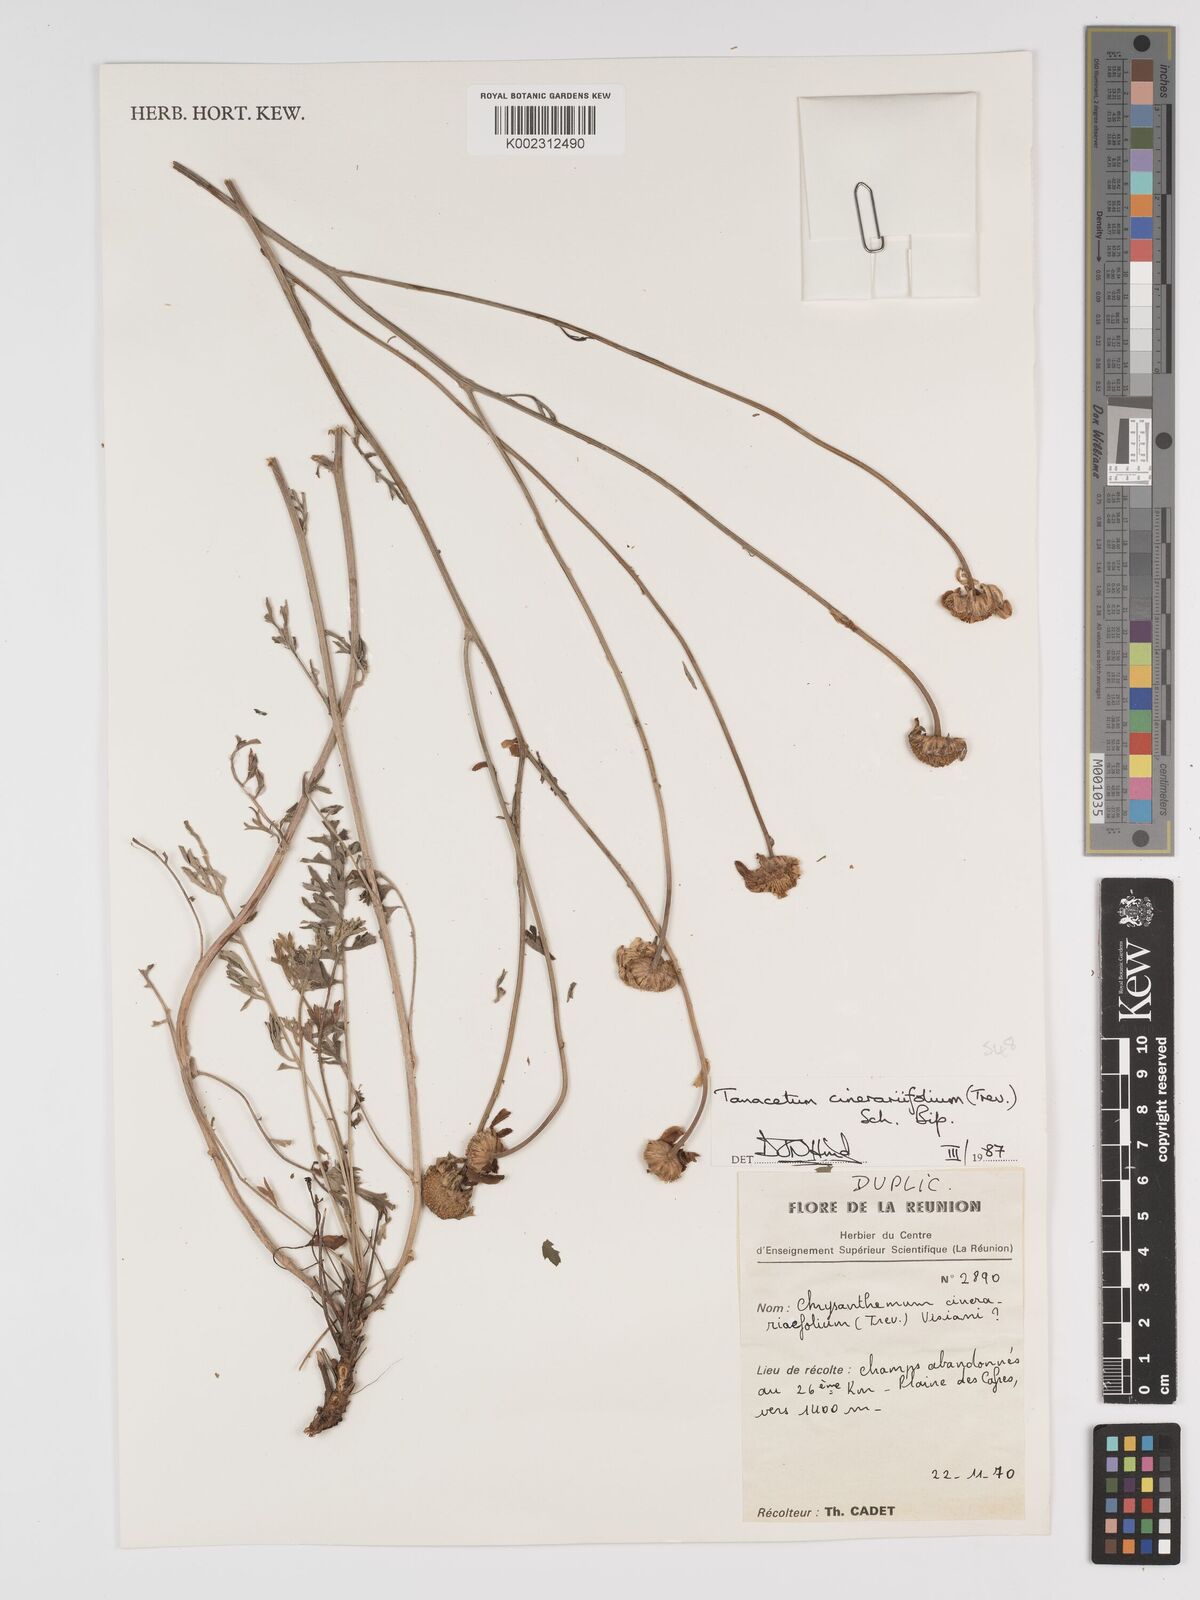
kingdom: Plantae
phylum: Tracheophyta
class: Magnoliopsida
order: Asterales
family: Asteraceae
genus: Tanacetum
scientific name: Tanacetum cinerariifolium
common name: Dalmatian pyrethrum
